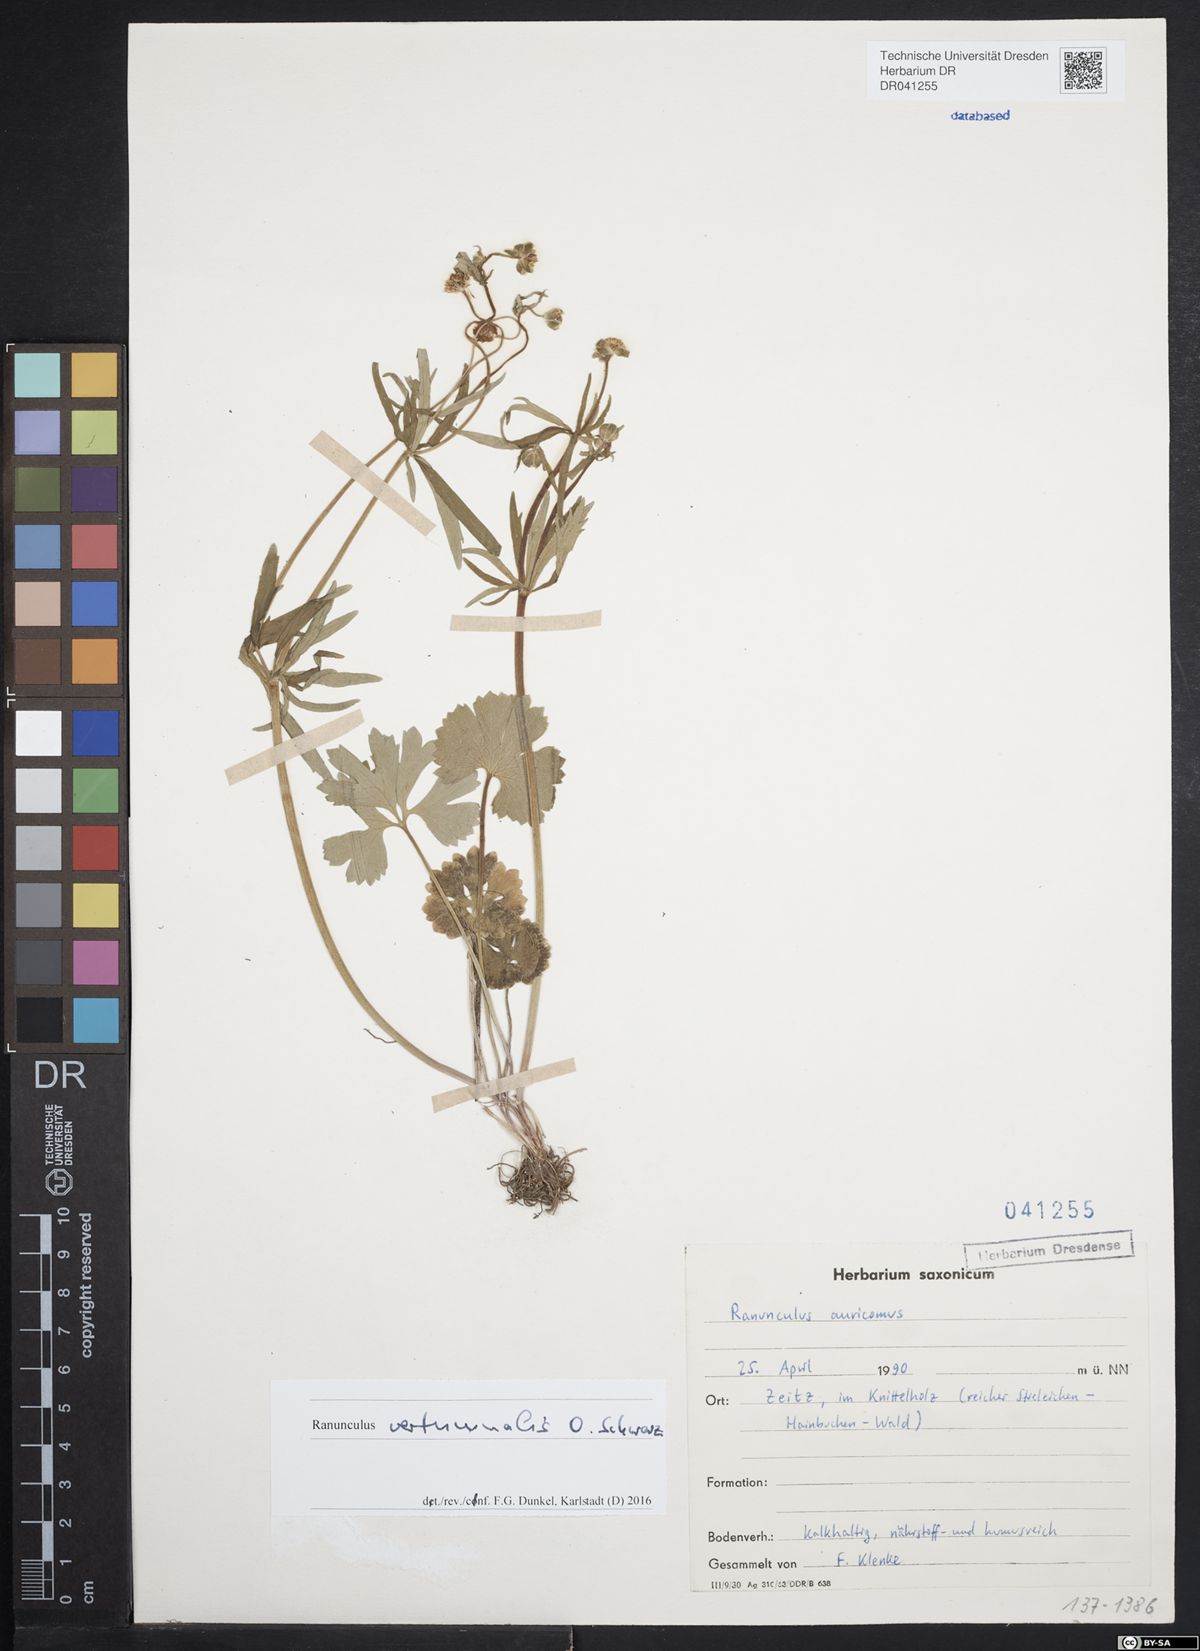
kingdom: Plantae
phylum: Tracheophyta
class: Magnoliopsida
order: Ranunculales
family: Ranunculaceae
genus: Ranunculus
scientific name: Ranunculus vertumnalis
